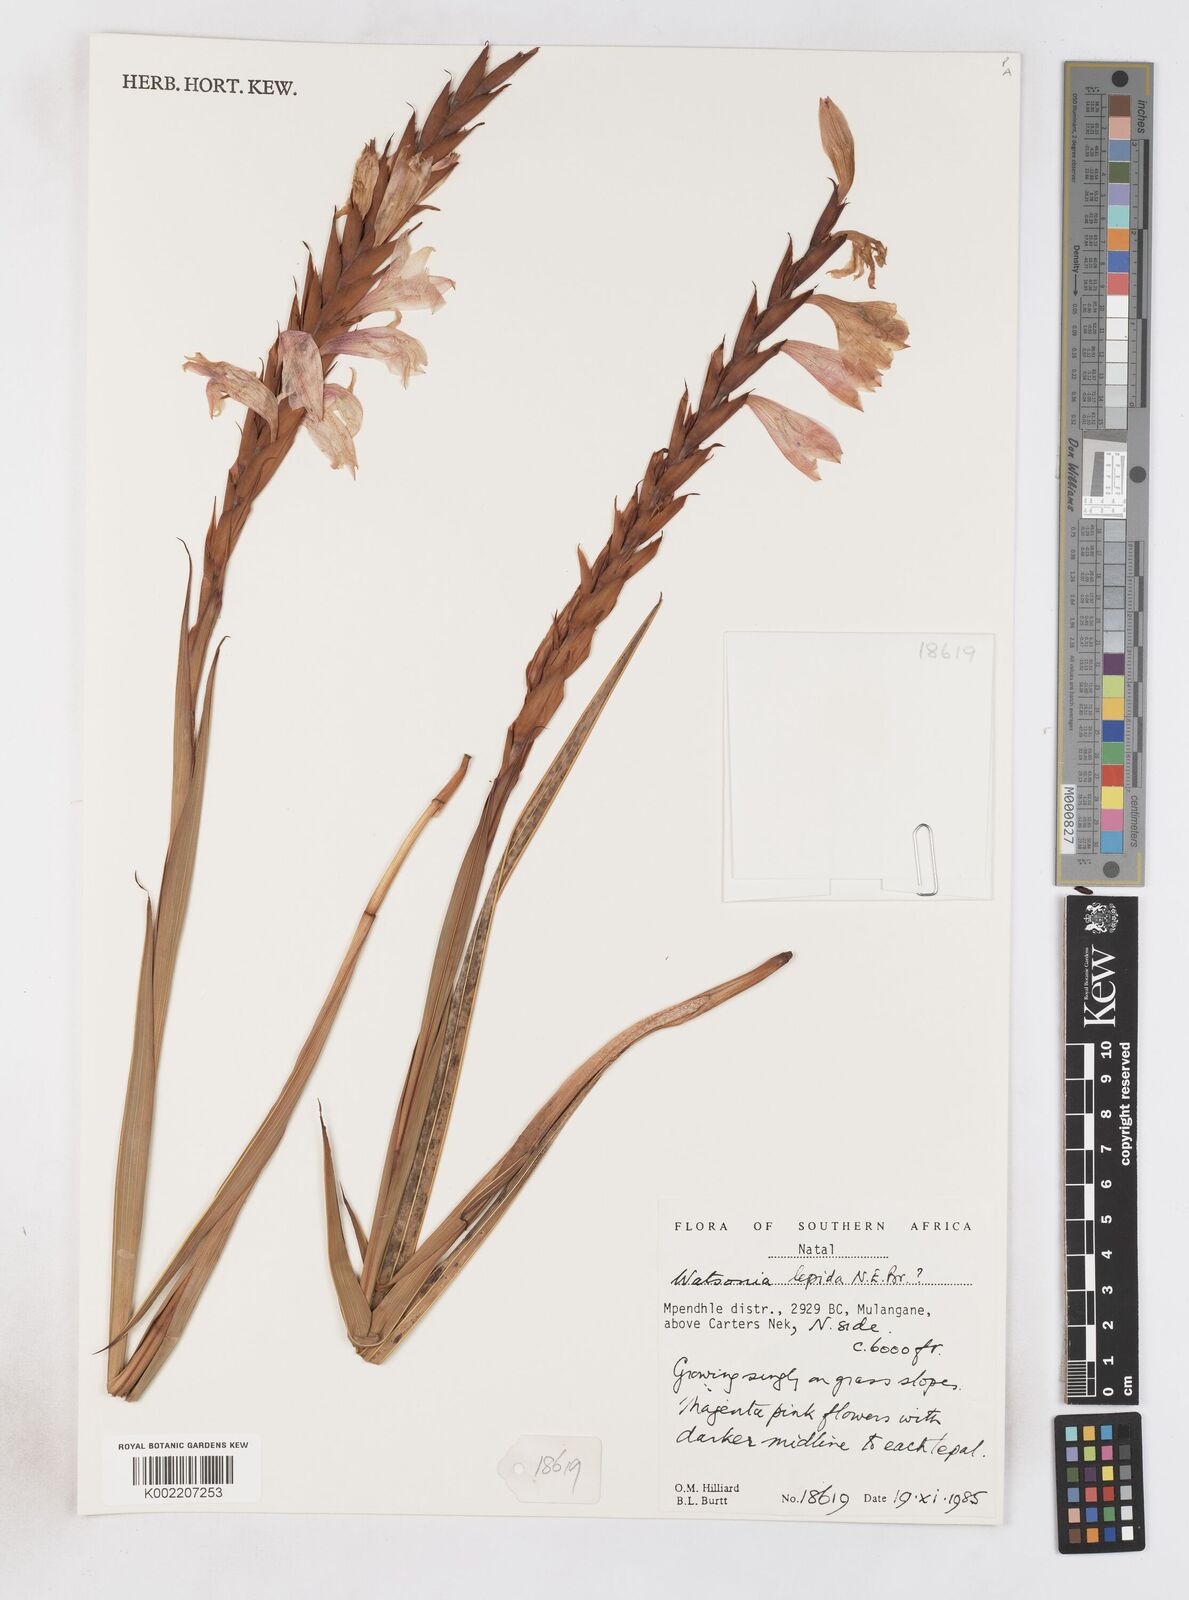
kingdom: Plantae
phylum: Tracheophyta
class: Liliopsida
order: Asparagales
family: Iridaceae
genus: Watsonia
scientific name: Watsonia lepida
